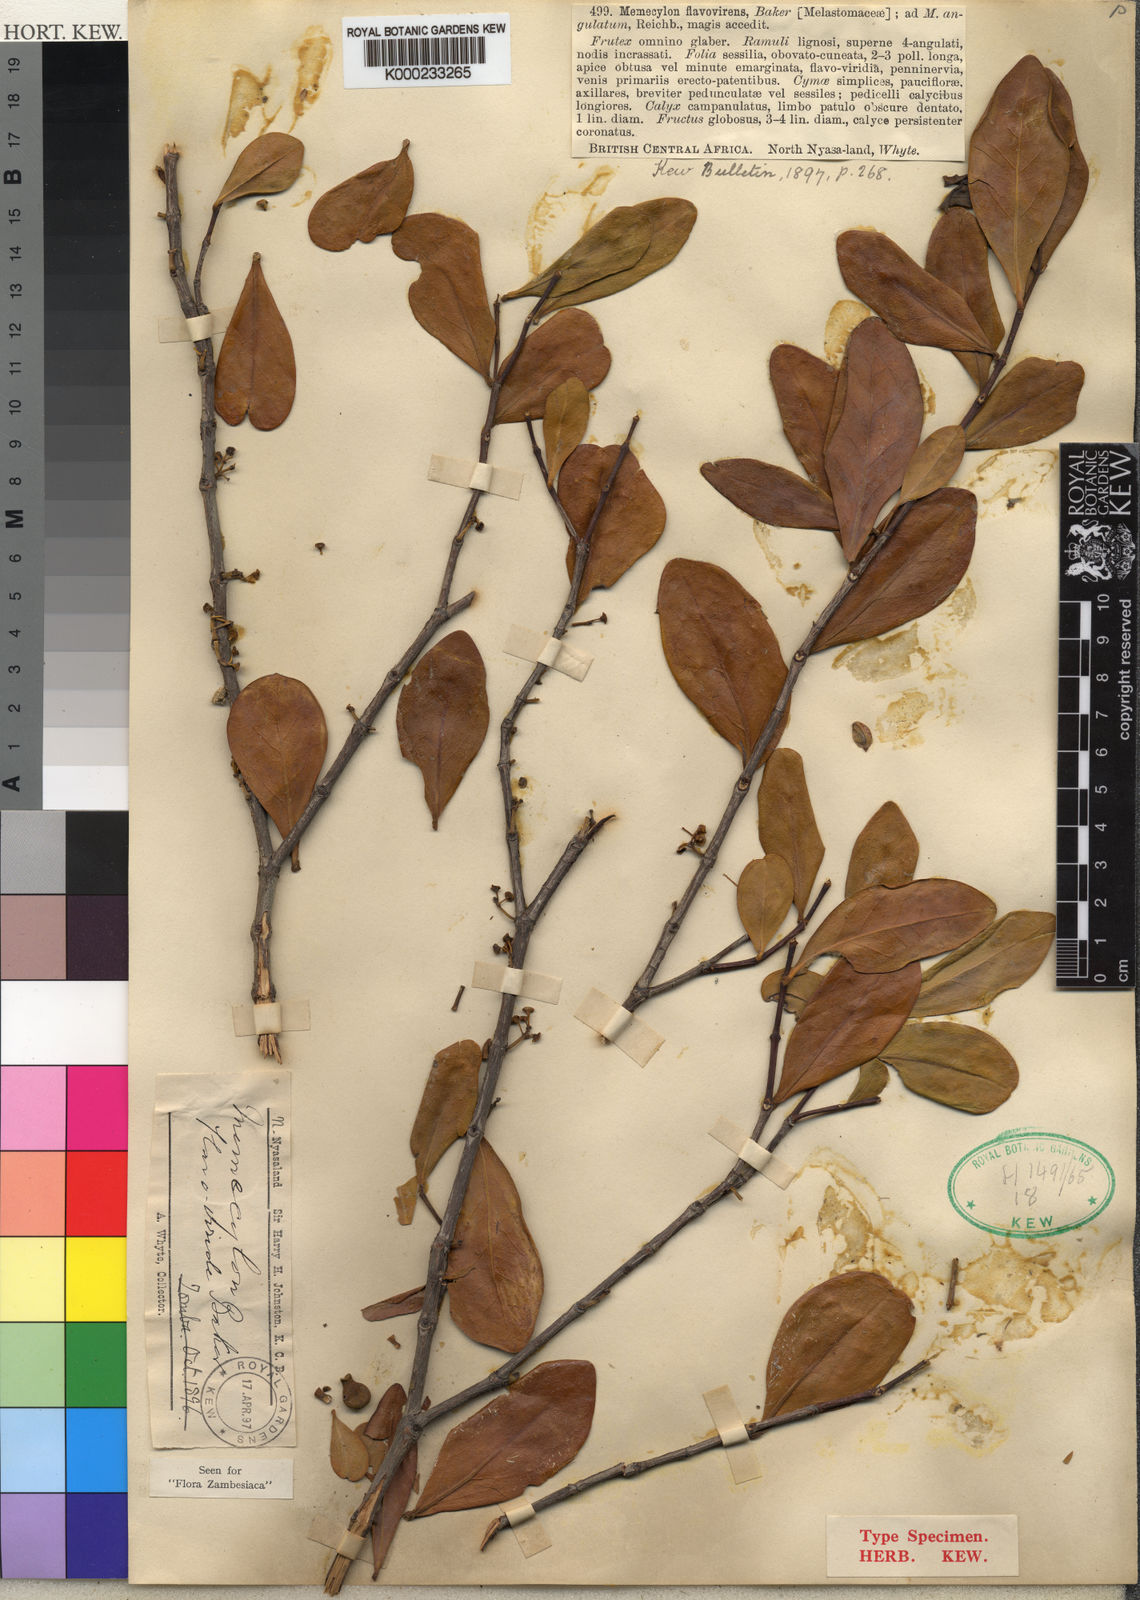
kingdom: Plantae
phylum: Tracheophyta
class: Magnoliopsida
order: Myrtales
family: Melastomataceae
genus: Memecylon
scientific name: Memecylon flavovirens
